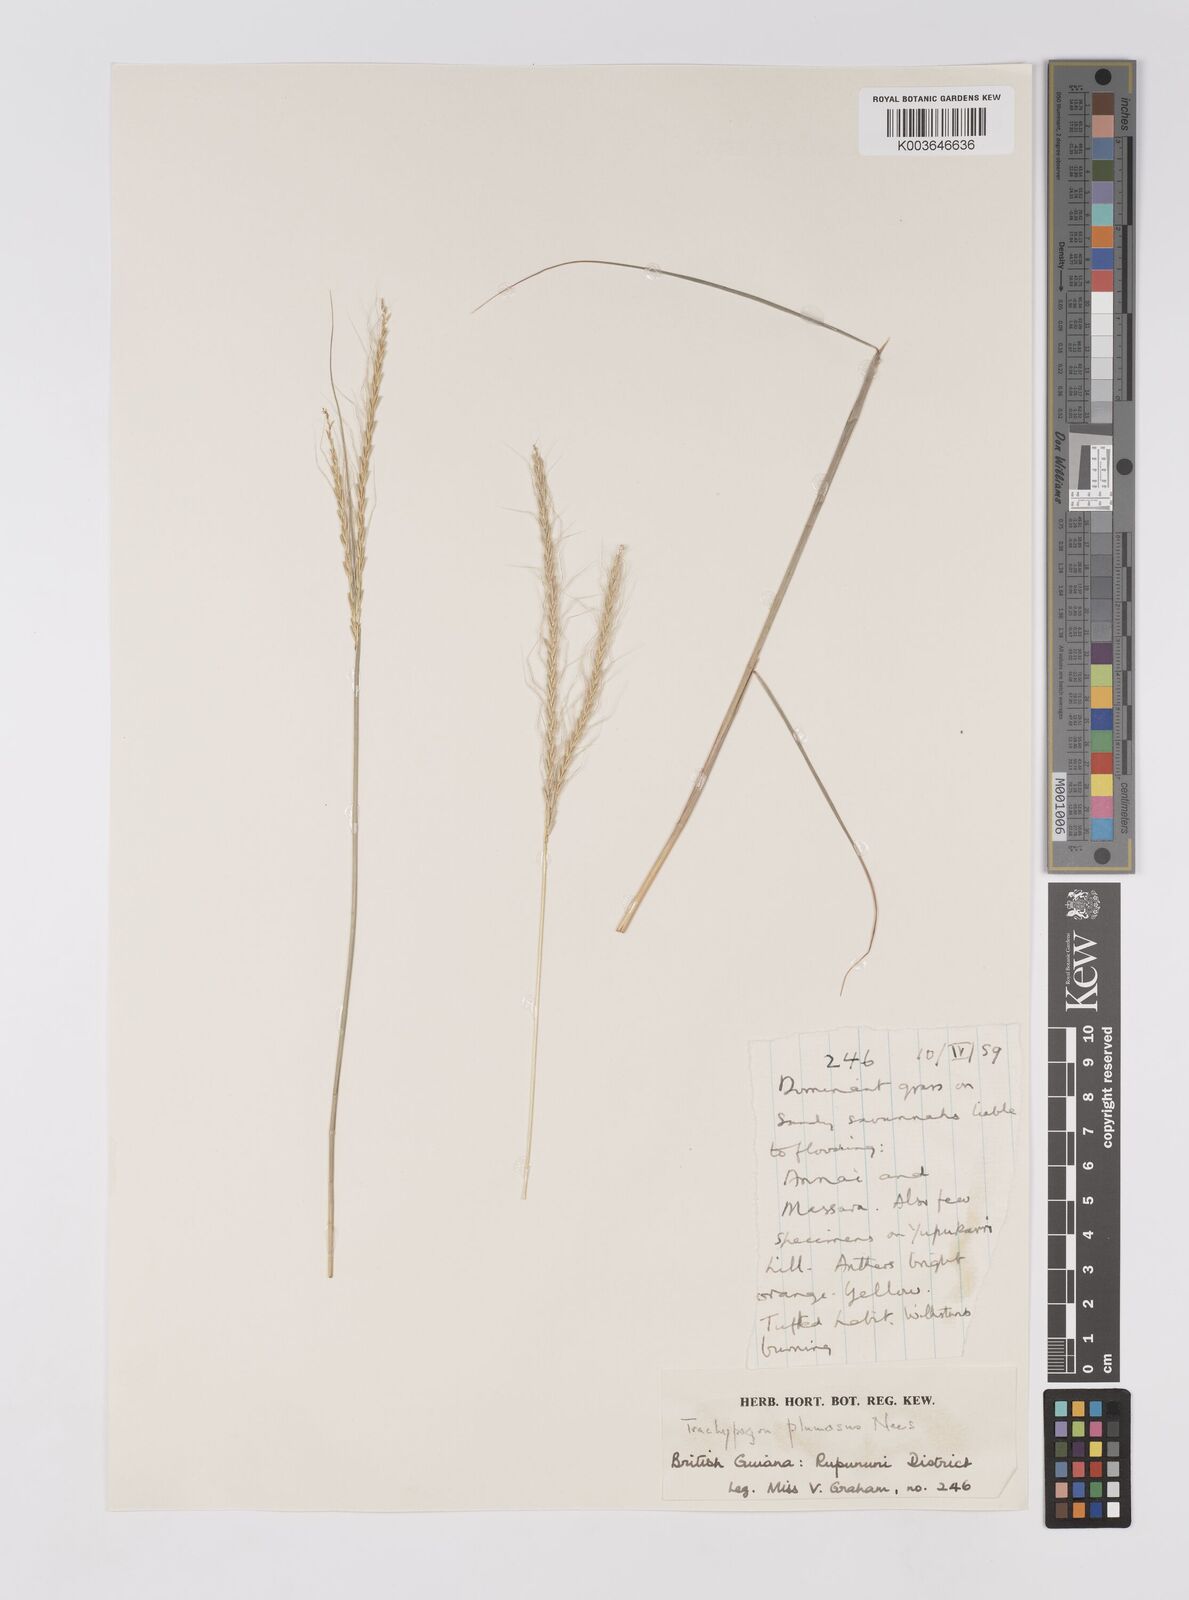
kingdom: Plantae
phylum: Tracheophyta
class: Liliopsida
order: Poales
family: Poaceae
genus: Trachypogon
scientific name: Trachypogon spicatus
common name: Crinkle-awn
